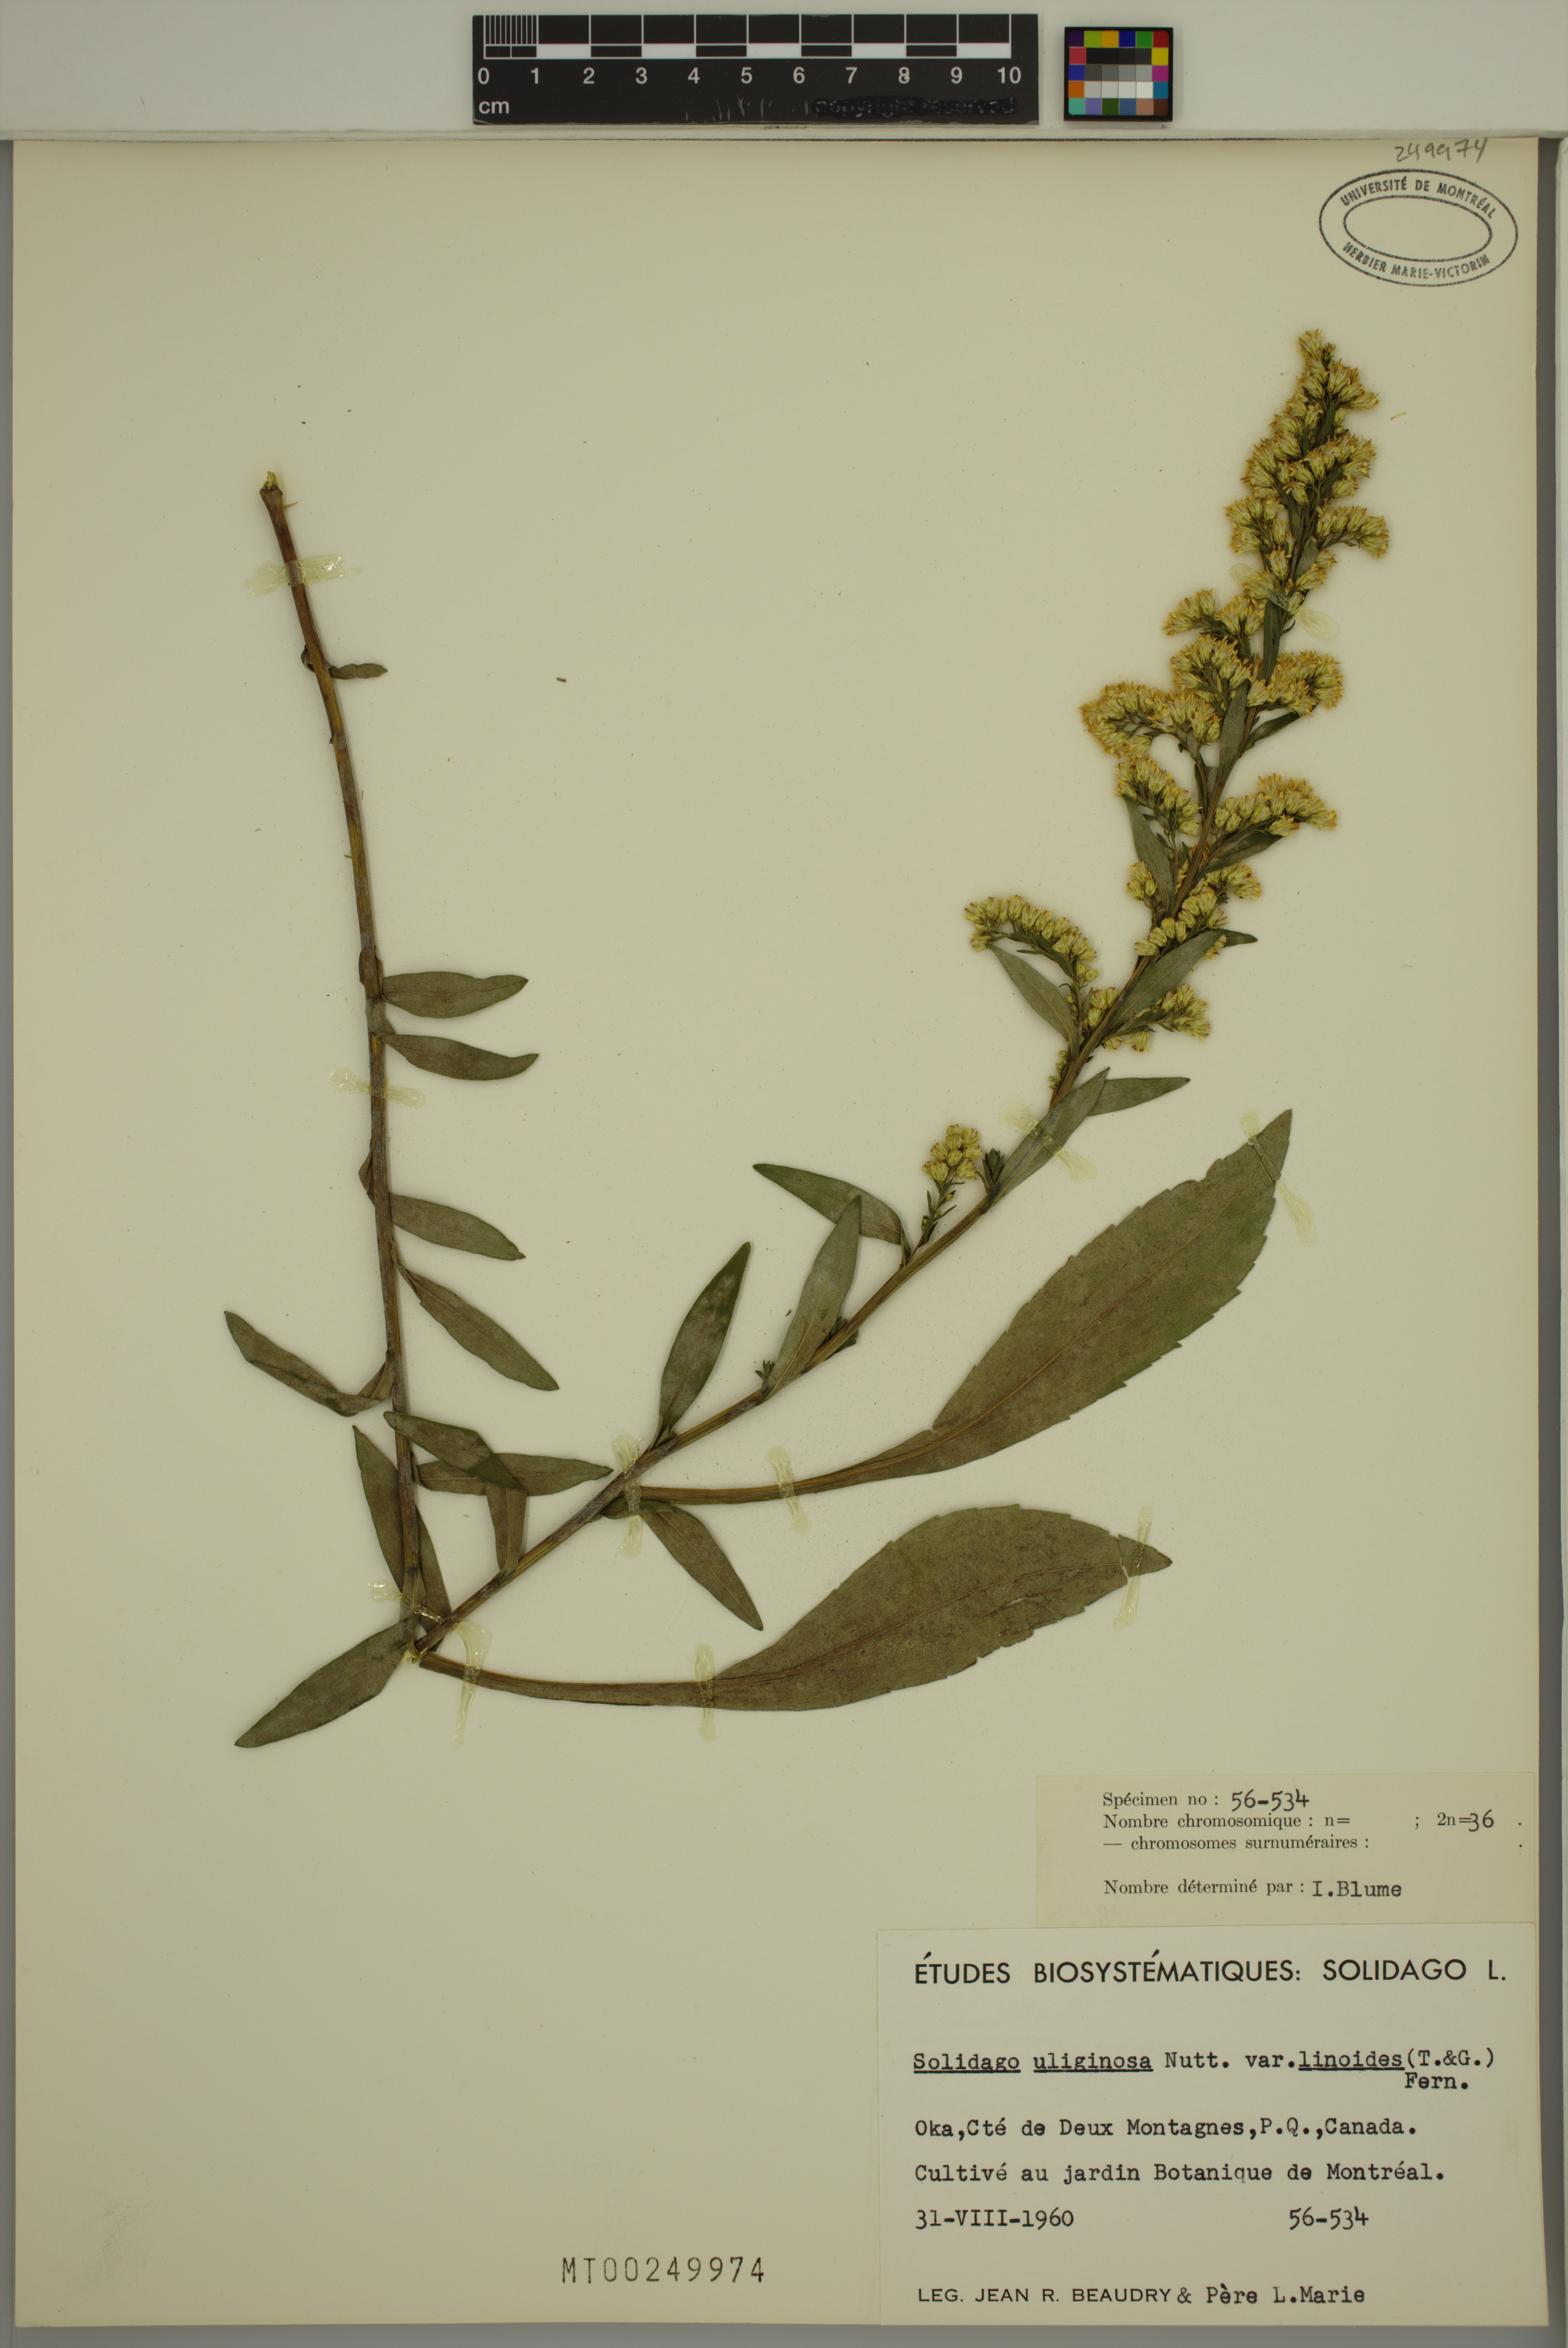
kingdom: Plantae
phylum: Tracheophyta
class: Magnoliopsida
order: Asterales
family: Asteraceae
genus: Solidago
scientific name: Solidago uliginosa
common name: Bog goldenrod
